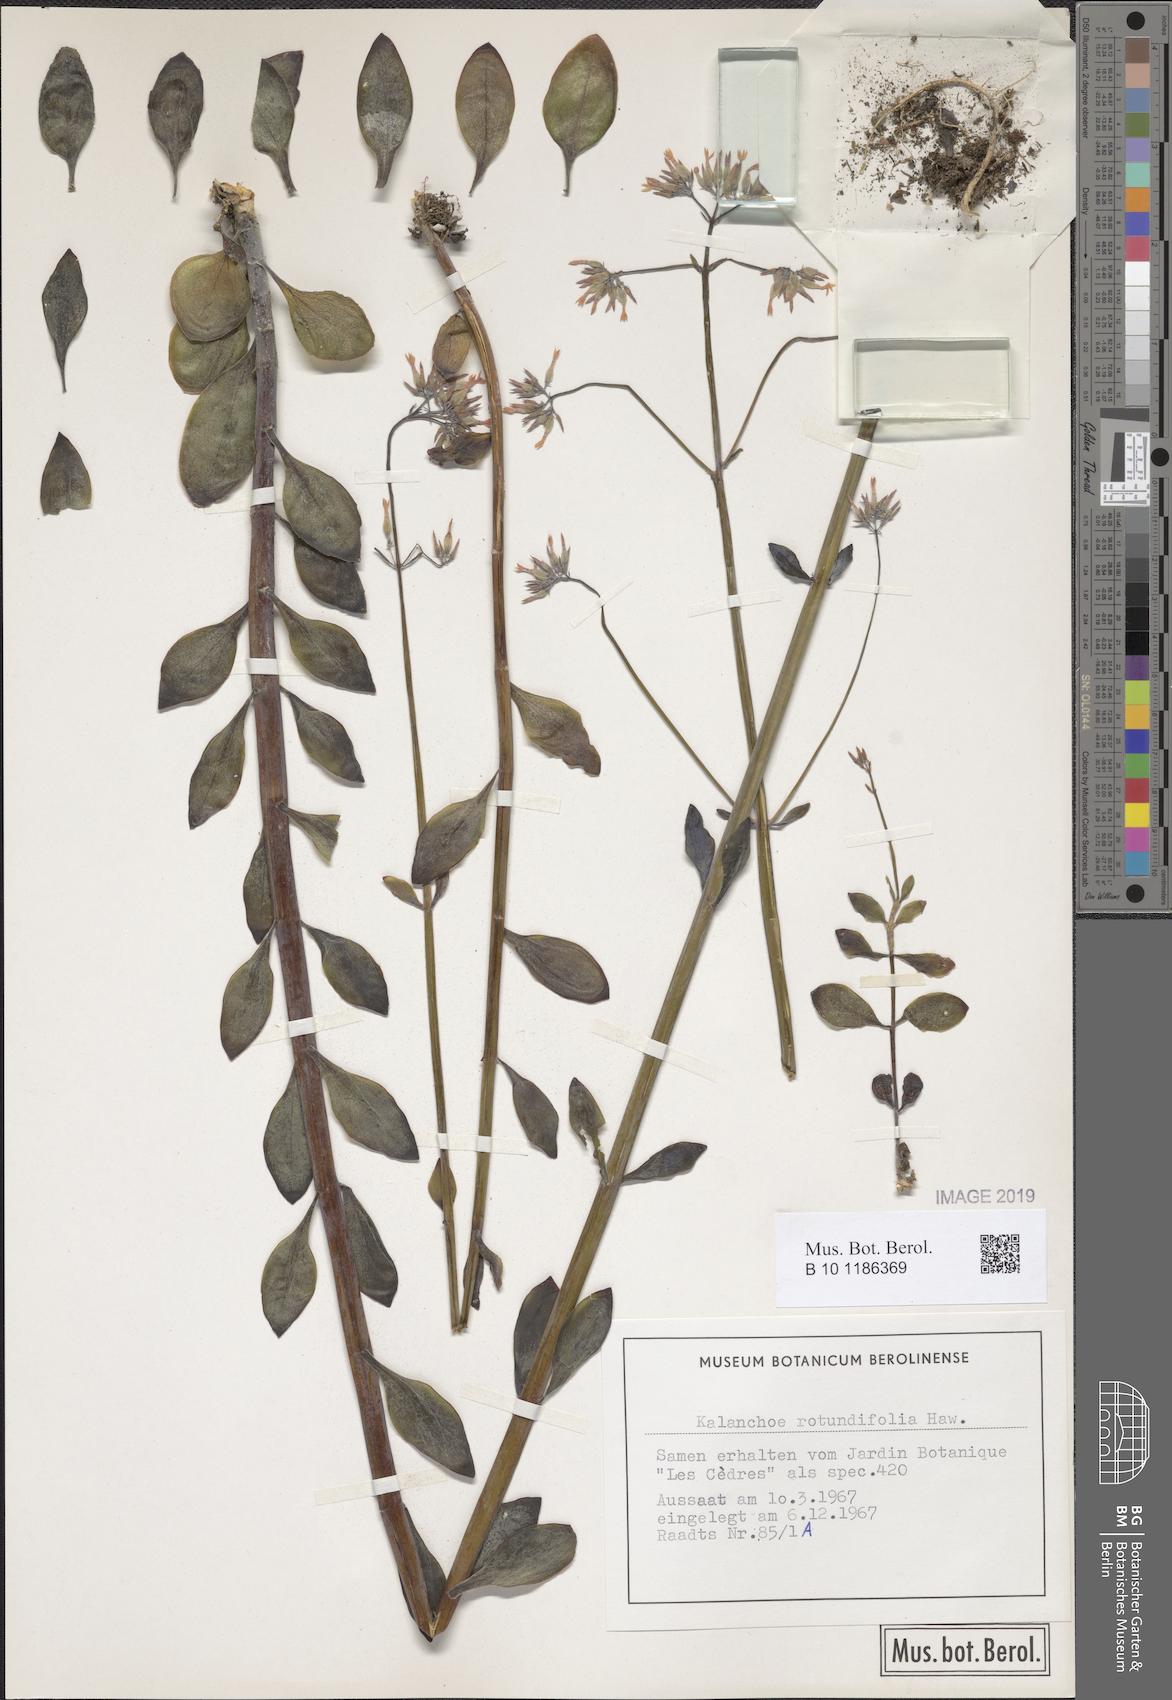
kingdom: Plantae
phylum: Tracheophyta
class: Magnoliopsida
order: Saxifragales
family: Crassulaceae
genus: Kalanchoe
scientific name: Kalanchoe rotundifolia
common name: Common kalanchoe
